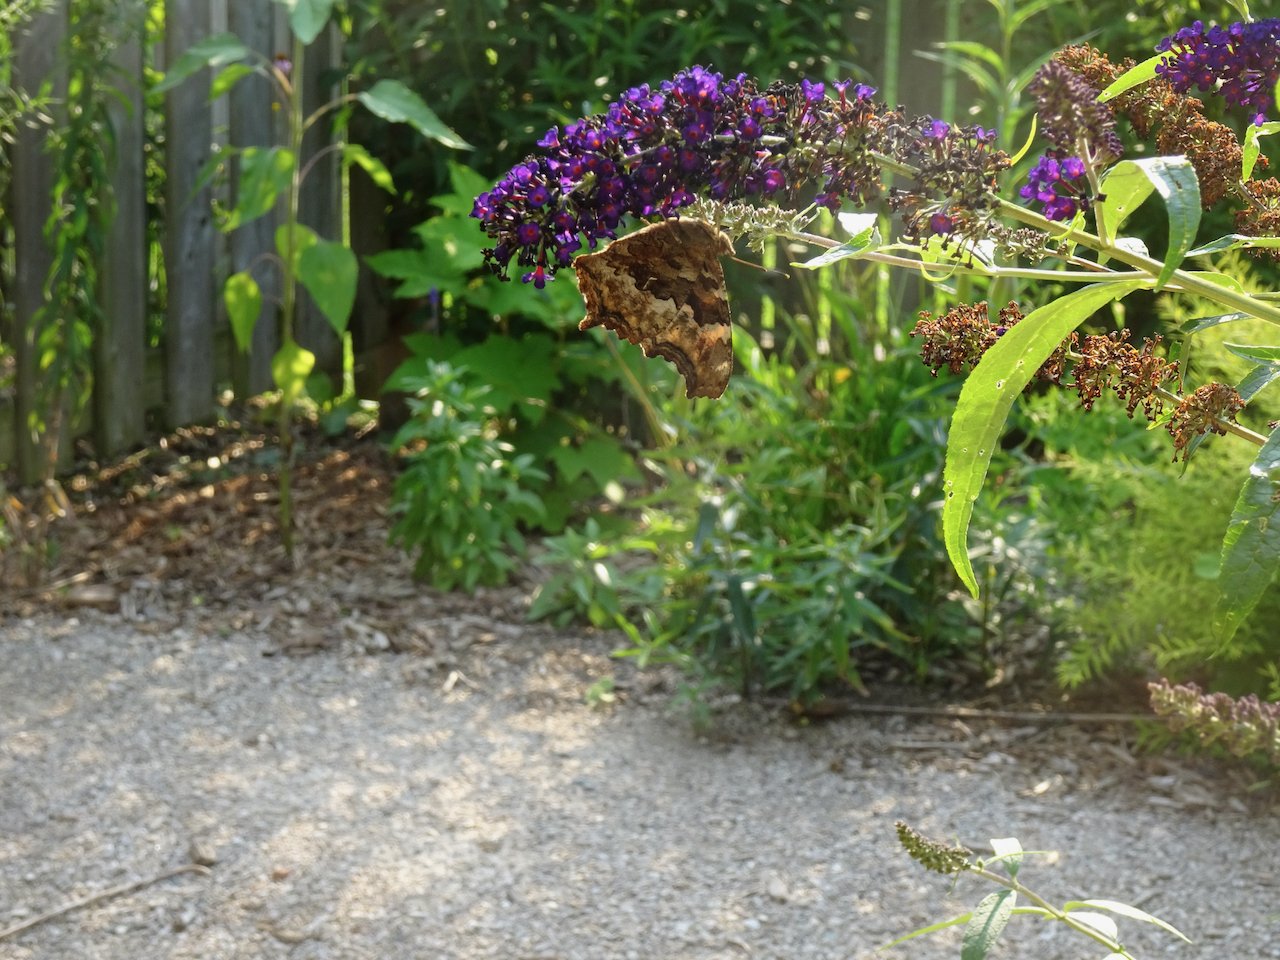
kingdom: Animalia
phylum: Arthropoda
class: Insecta
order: Lepidoptera
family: Nymphalidae
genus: Polygonia
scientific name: Polygonia vaualbum
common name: Compton Tortoiseshell
